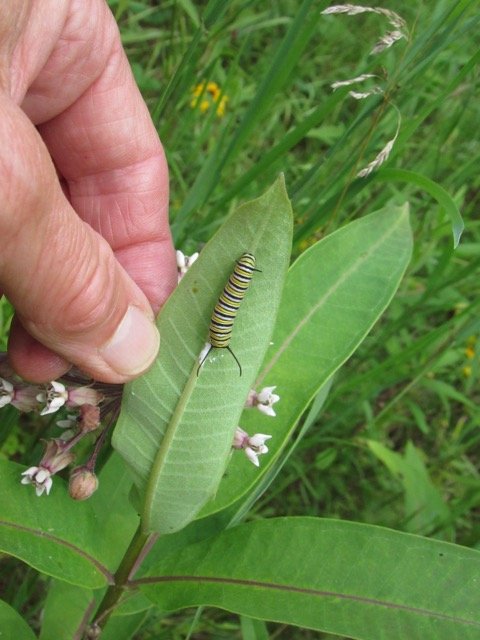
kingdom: Animalia
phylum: Arthropoda
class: Insecta
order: Lepidoptera
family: Nymphalidae
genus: Danaus
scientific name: Danaus plexippus
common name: Monarch
